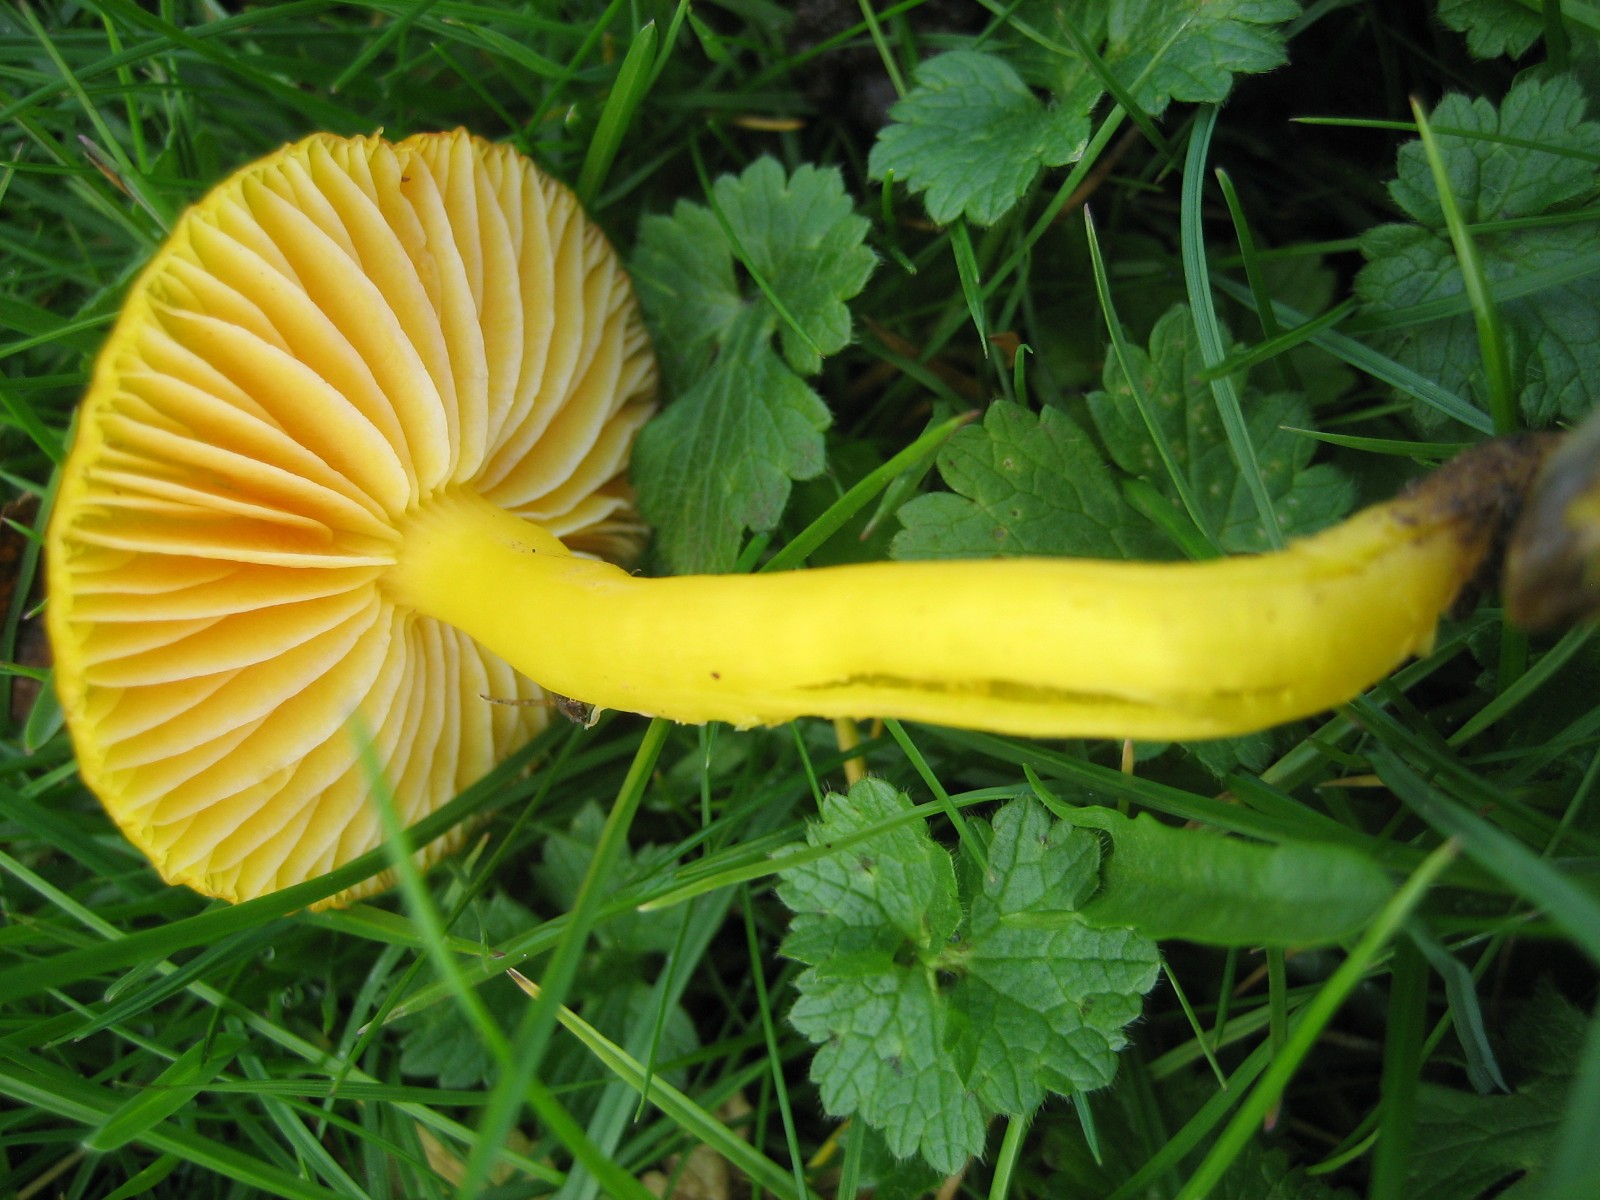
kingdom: Fungi
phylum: Basidiomycota
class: Agaricomycetes
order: Agaricales
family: Hygrophoraceae
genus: Hygrocybe
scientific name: Hygrocybe ceracea
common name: voksgul vokshat
